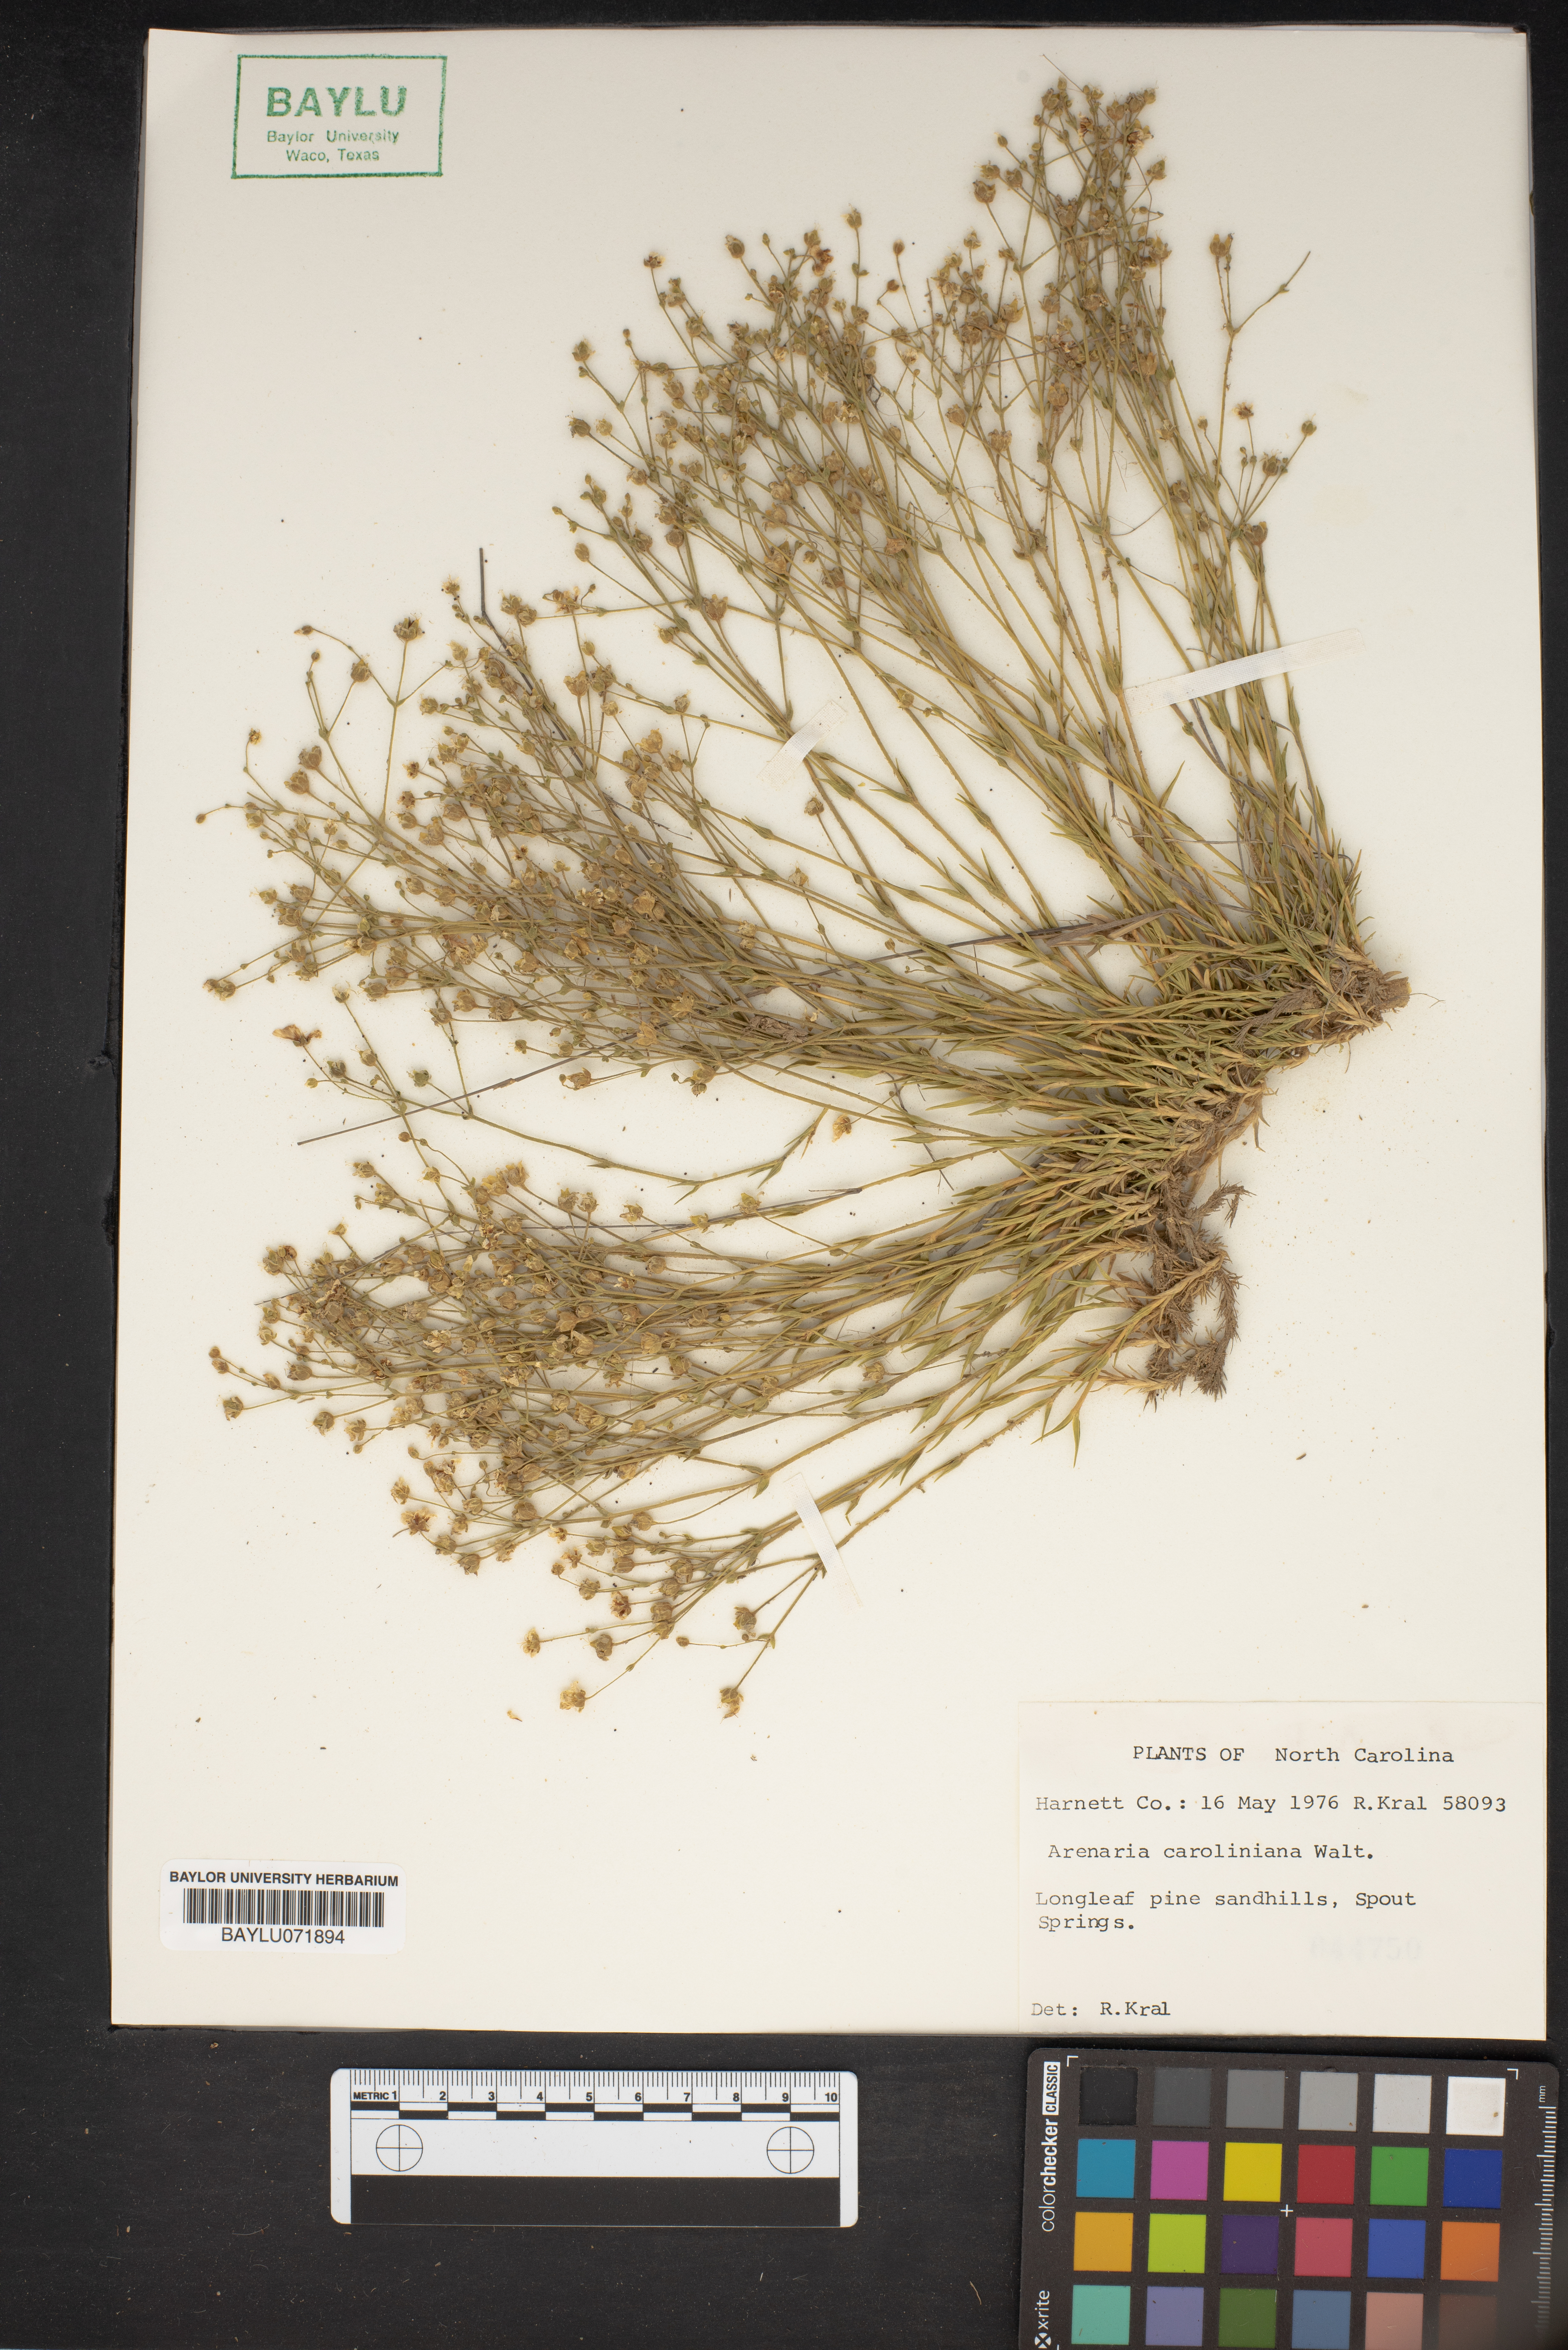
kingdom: Plantae
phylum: Tracheophyta
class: Magnoliopsida
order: Caryophyllales
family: Caryophyllaceae
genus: Geocarpon
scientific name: Geocarpon carolinianum
